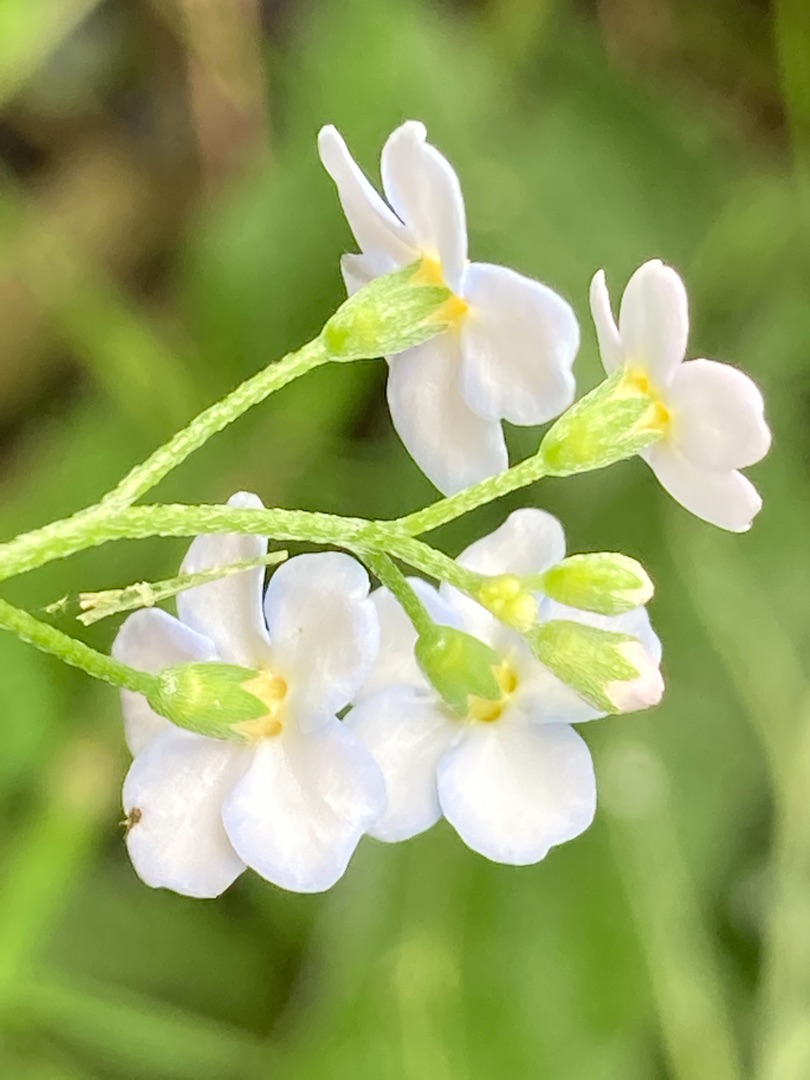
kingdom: Plantae
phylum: Tracheophyta
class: Magnoliopsida
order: Boraginales
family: Boraginaceae
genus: Myosotis
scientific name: Myosotis scorpioides
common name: Eng-forglemmigej
